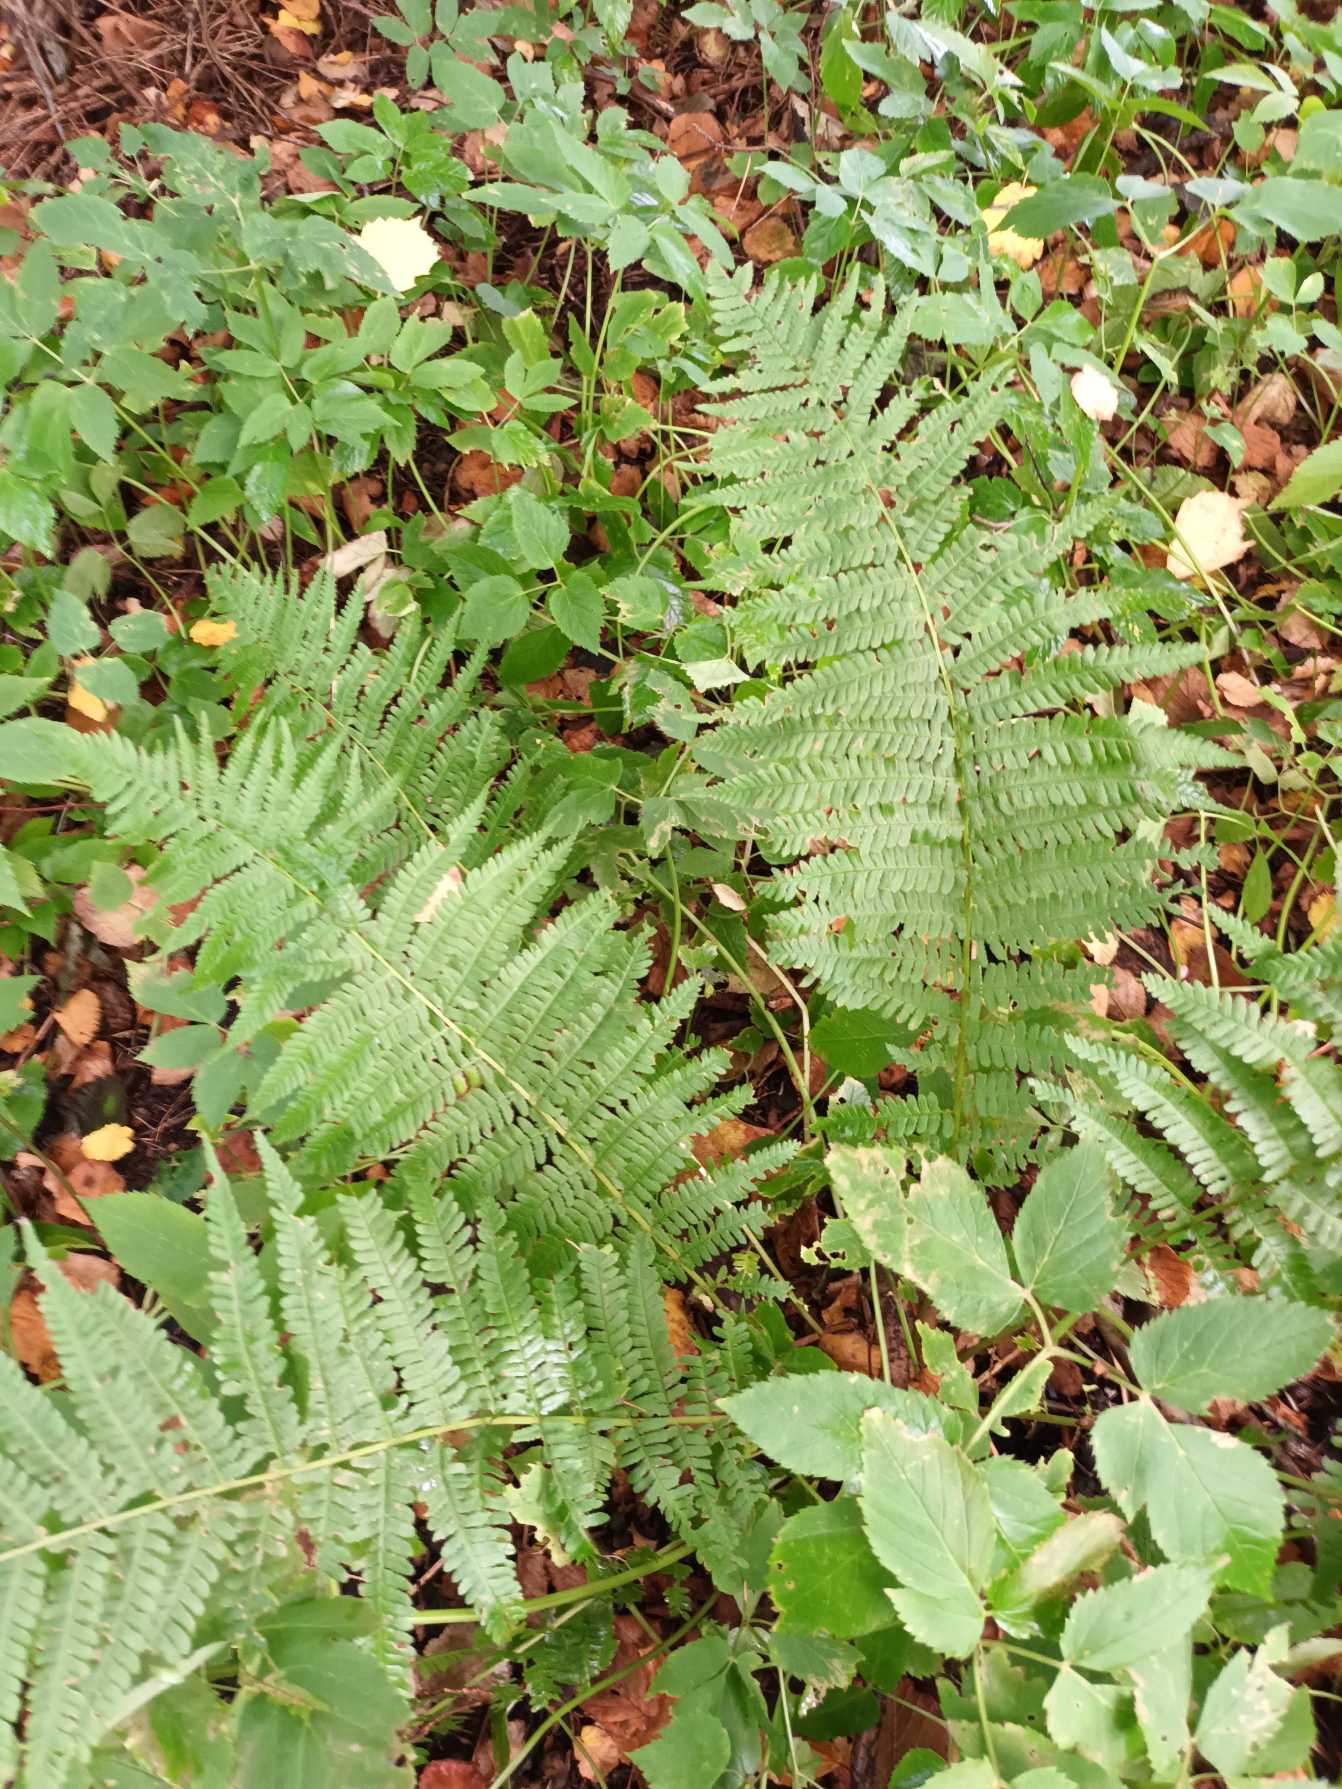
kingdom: Plantae
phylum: Tracheophyta
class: Polypodiopsida
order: Polypodiales
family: Dryopteridaceae
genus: Dryopteris
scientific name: Dryopteris filix-mas
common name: Almindelig mangeløv
